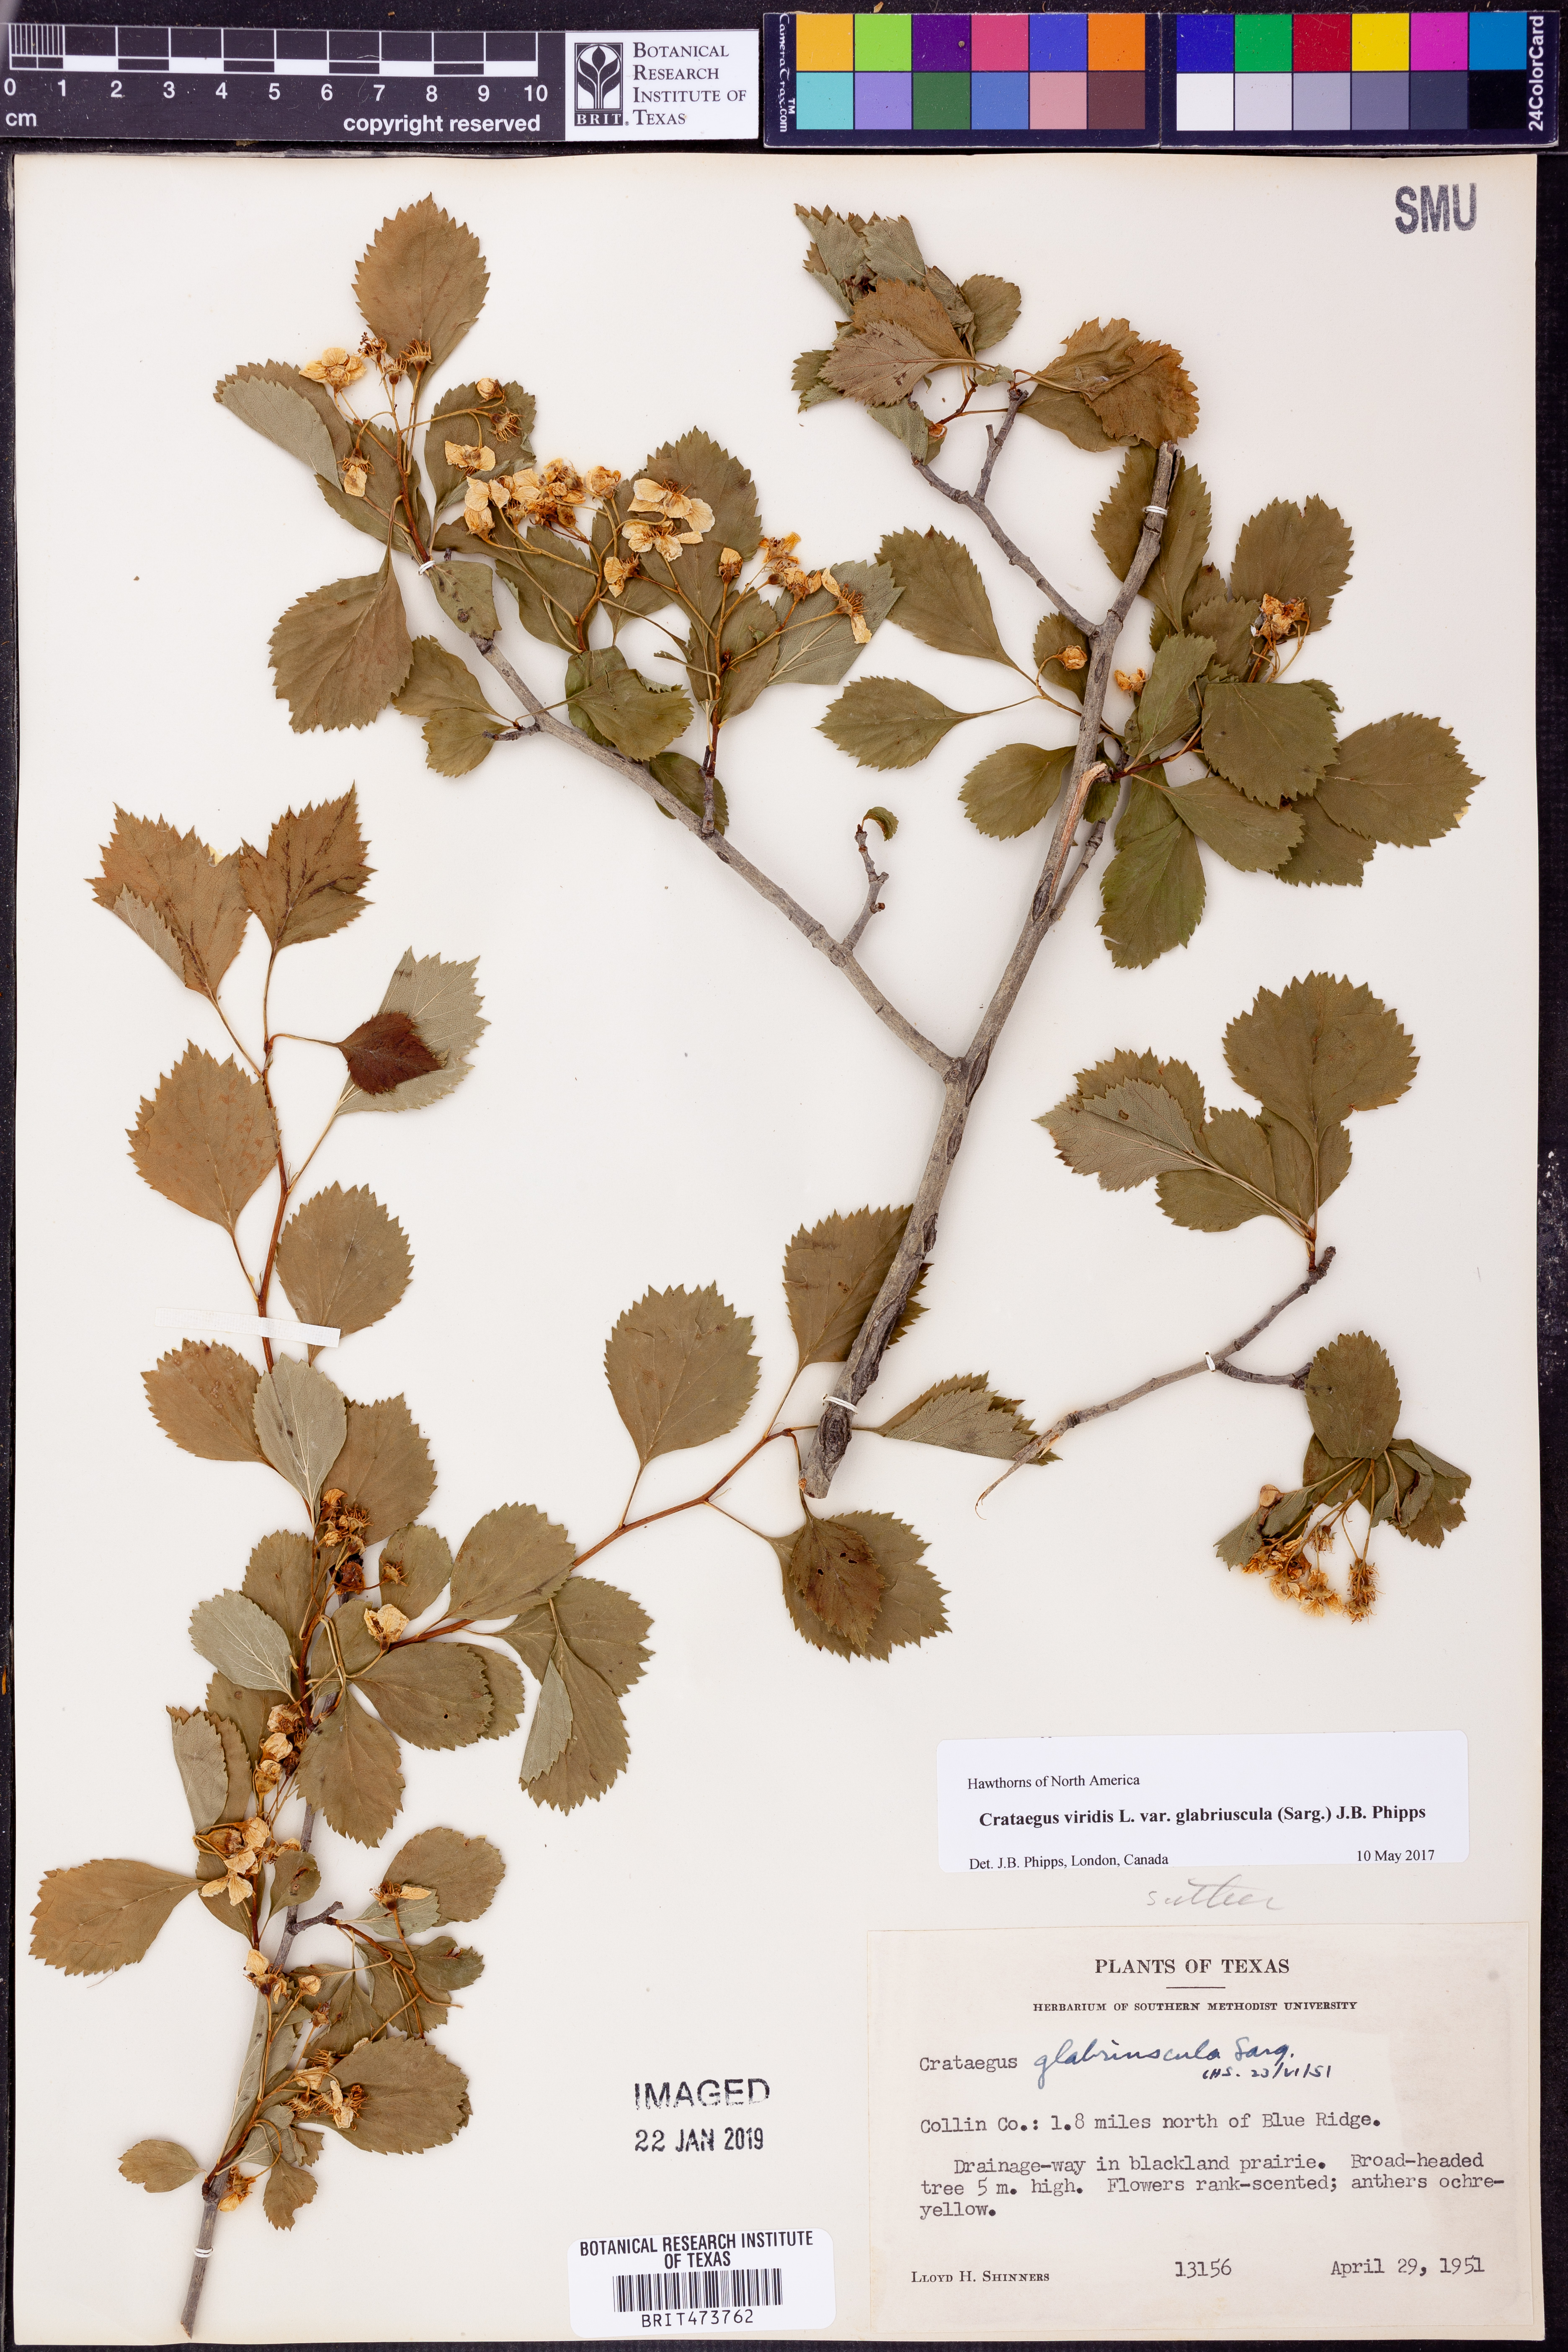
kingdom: Plantae
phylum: Tracheophyta
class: Magnoliopsida
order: Rosales
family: Rosaceae
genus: Crataegus
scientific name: Crataegus viridis
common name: Southernthorn
